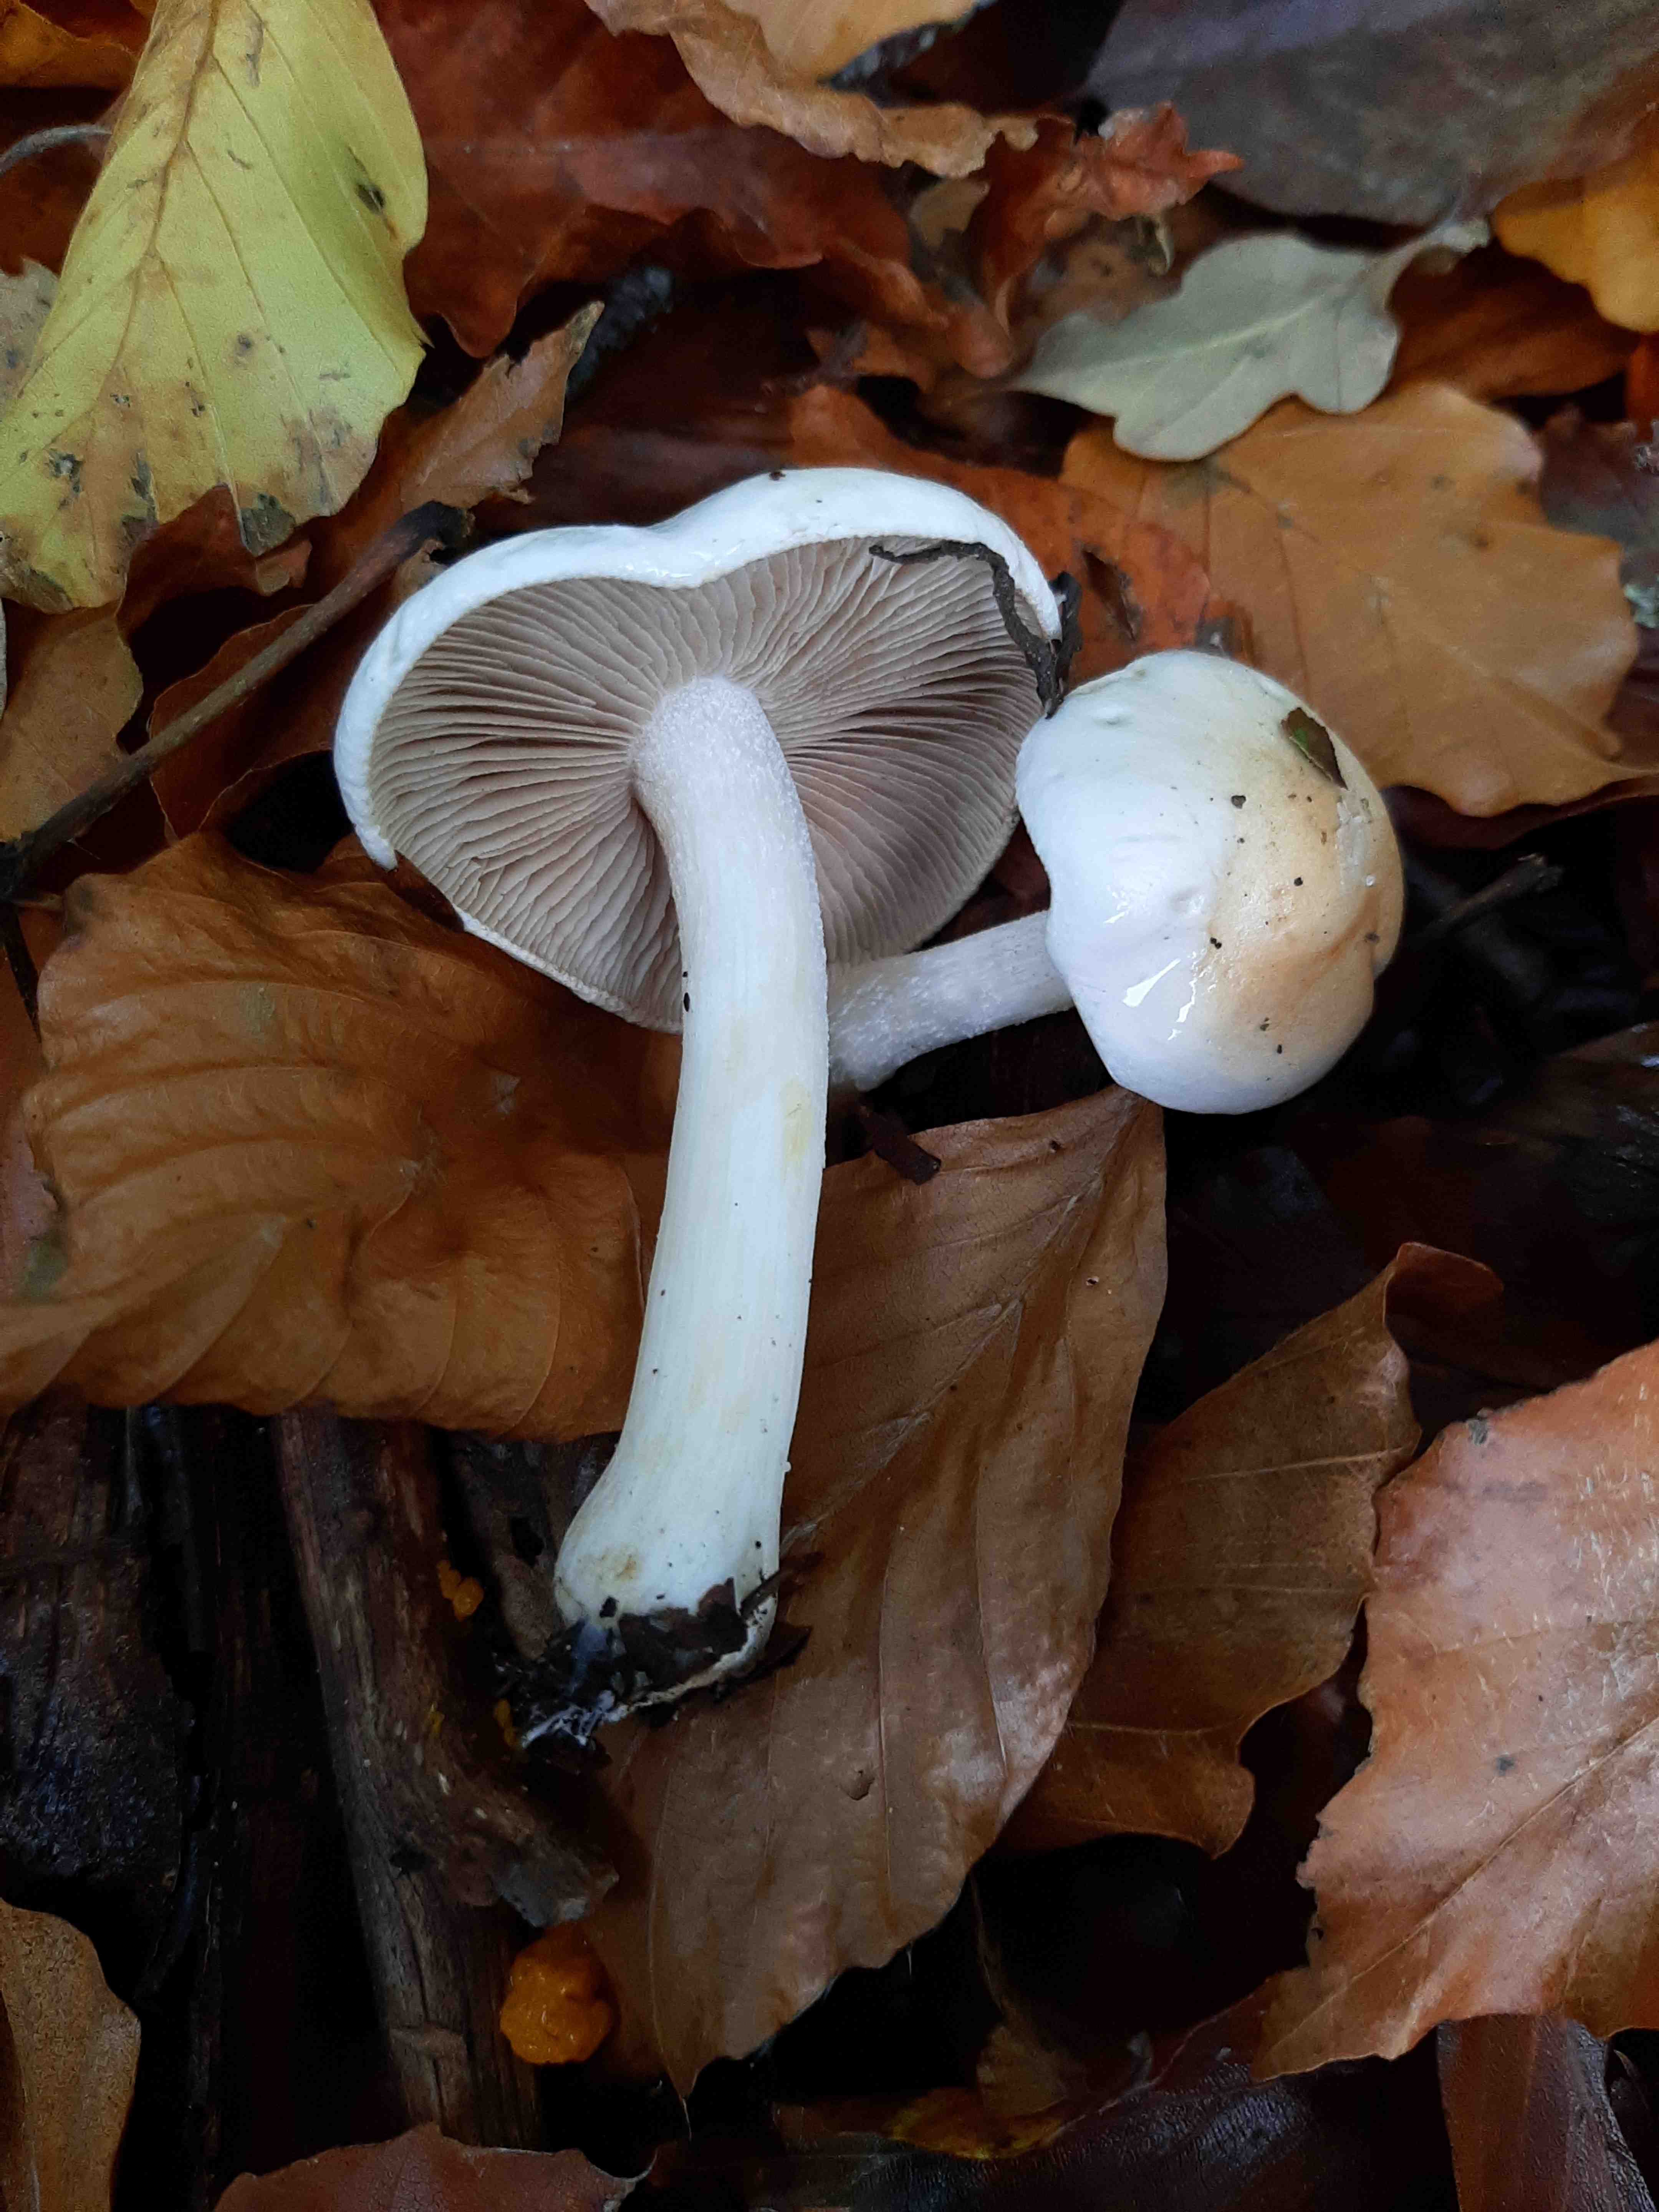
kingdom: Fungi
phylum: Basidiomycota
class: Agaricomycetes
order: Agaricales
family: Hymenogastraceae
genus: Hebeloma
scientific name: Hebeloma
